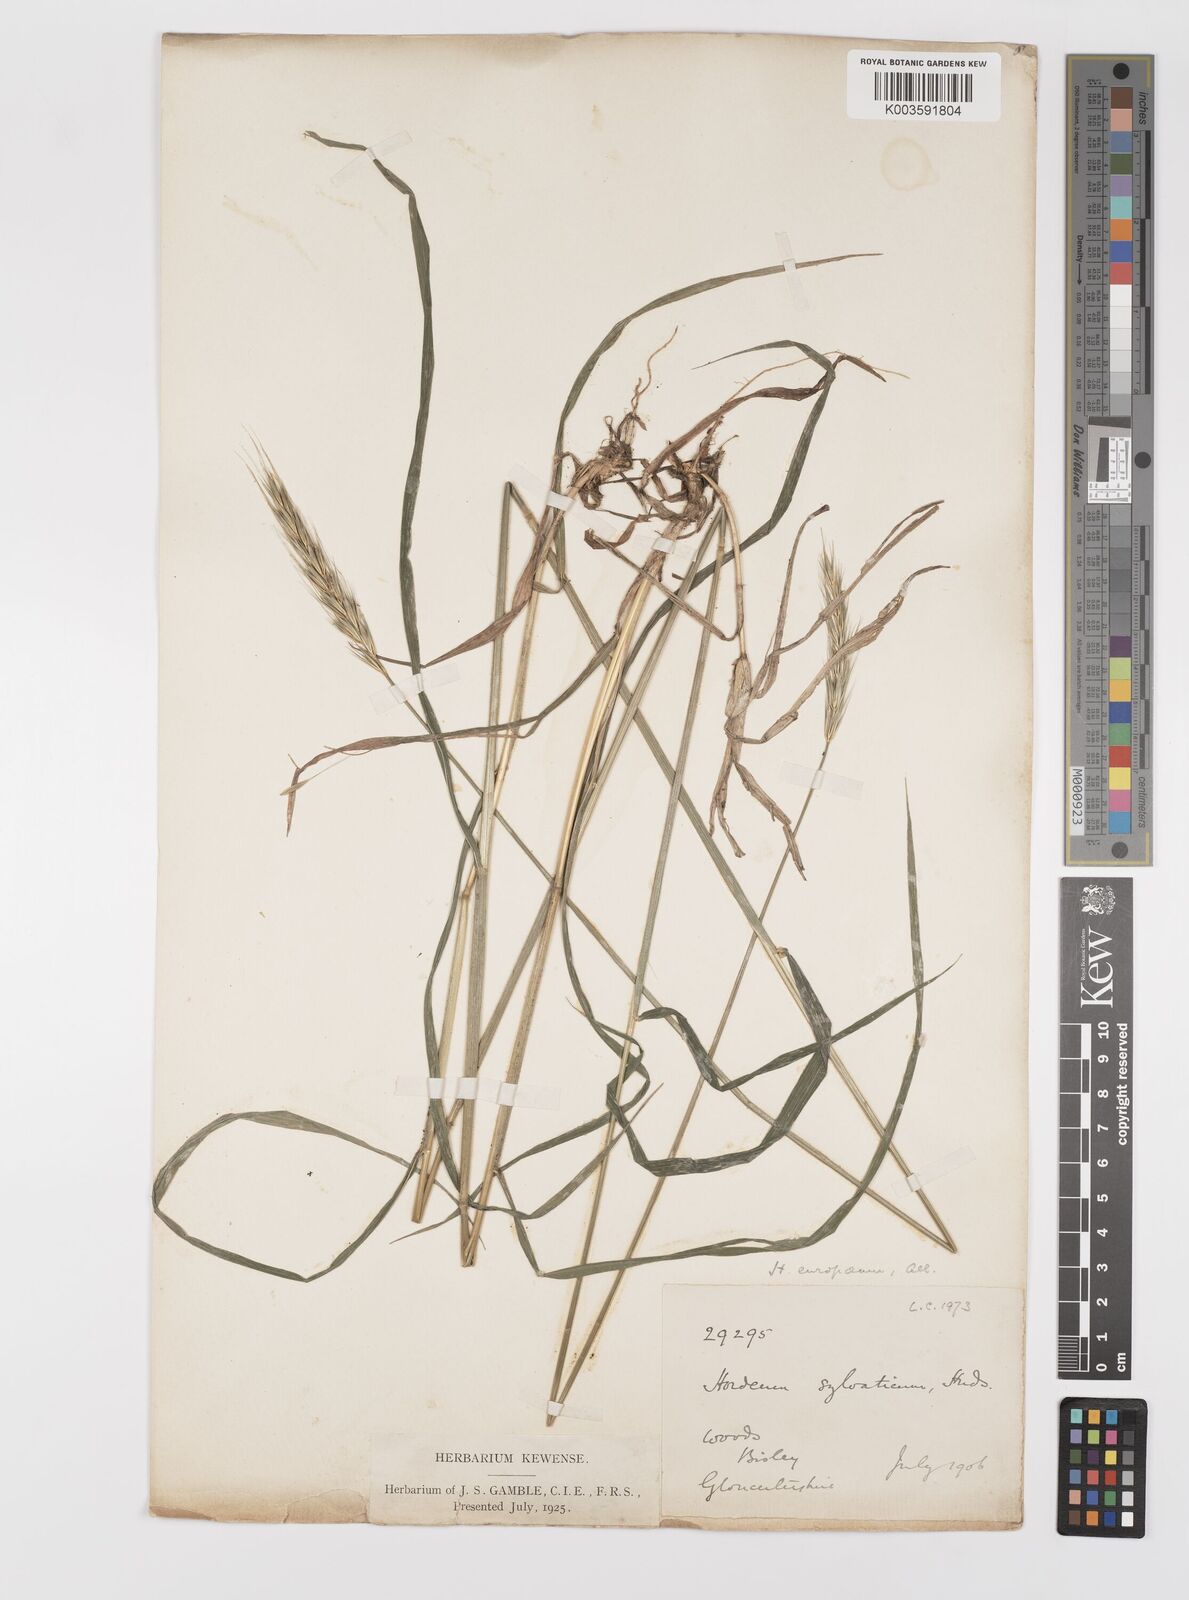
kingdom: Plantae
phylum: Tracheophyta
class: Liliopsida
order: Poales
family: Poaceae
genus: Hordelymus
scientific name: Hordelymus europaeus
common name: Wood-barley
